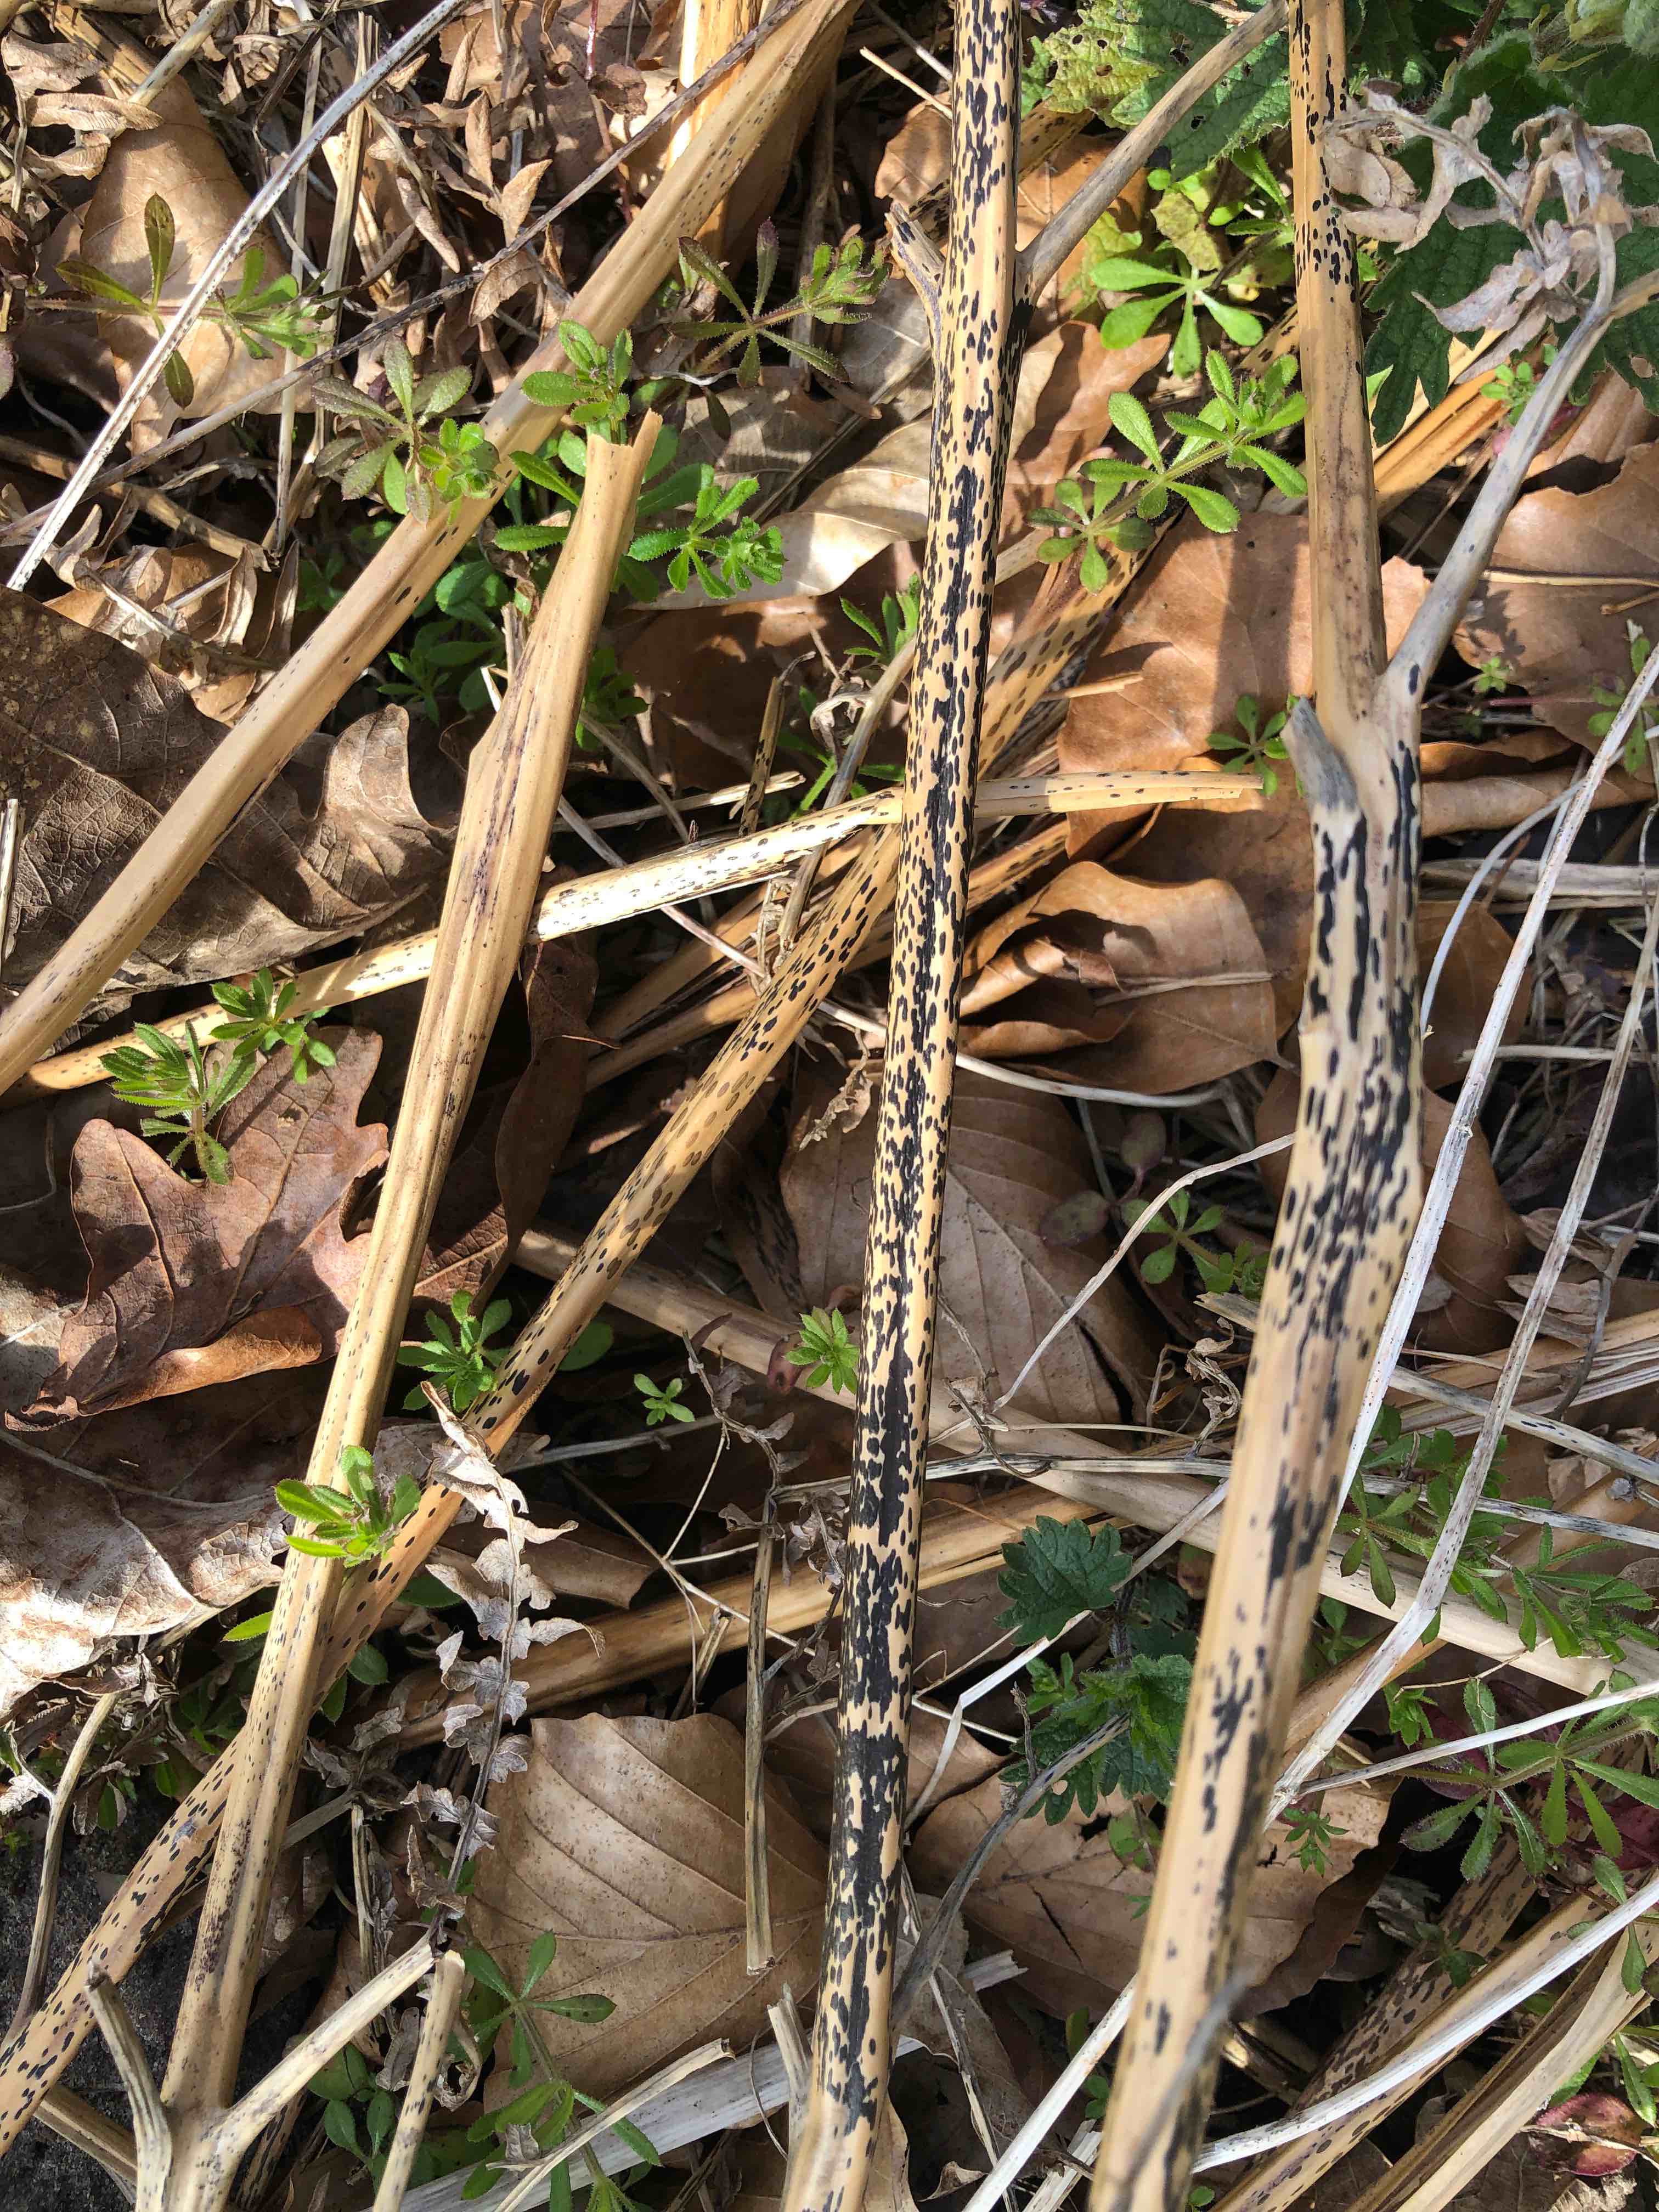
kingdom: Fungi
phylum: Ascomycota
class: Dothideomycetes
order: Pleosporales
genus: Rhopographus
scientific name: Rhopographus filicinus
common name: Bracken map
